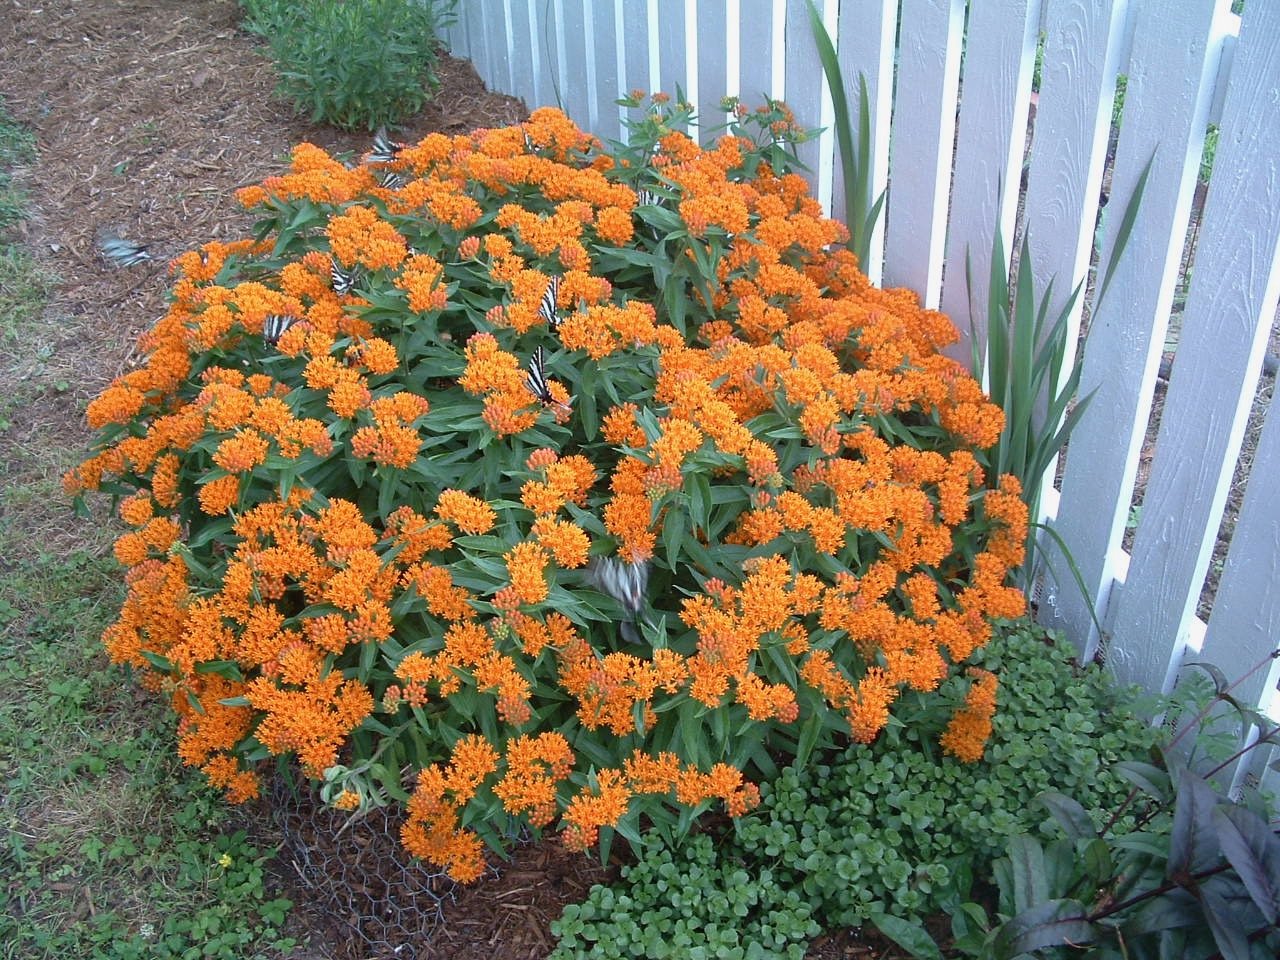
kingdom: Animalia
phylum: Arthropoda
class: Insecta
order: Lepidoptera
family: Papilionidae
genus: Protographium
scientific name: Protographium marcellus
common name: Zebra Swallowtail
